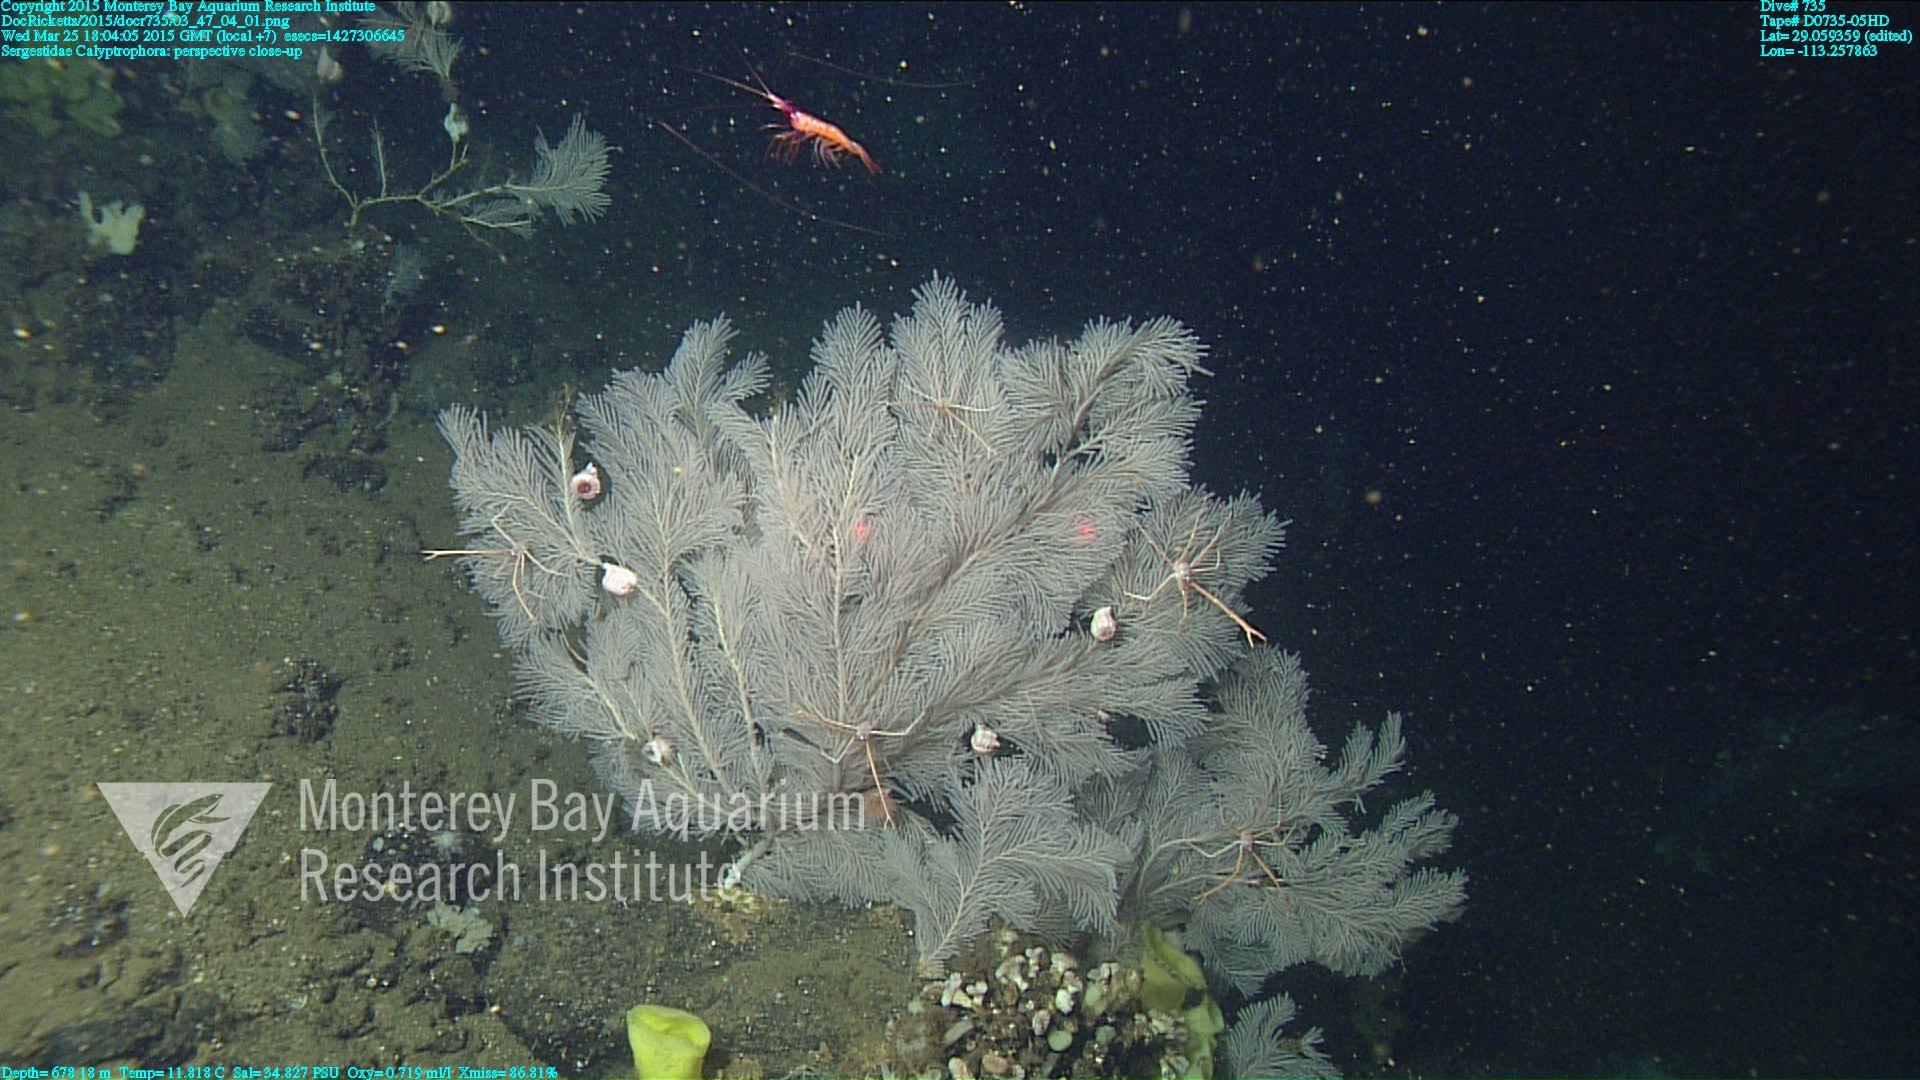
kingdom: Animalia
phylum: Cnidaria
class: Anthozoa
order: Scleralcyonacea
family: Primnoidae
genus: Calyptrophora
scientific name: Calyptrophora
